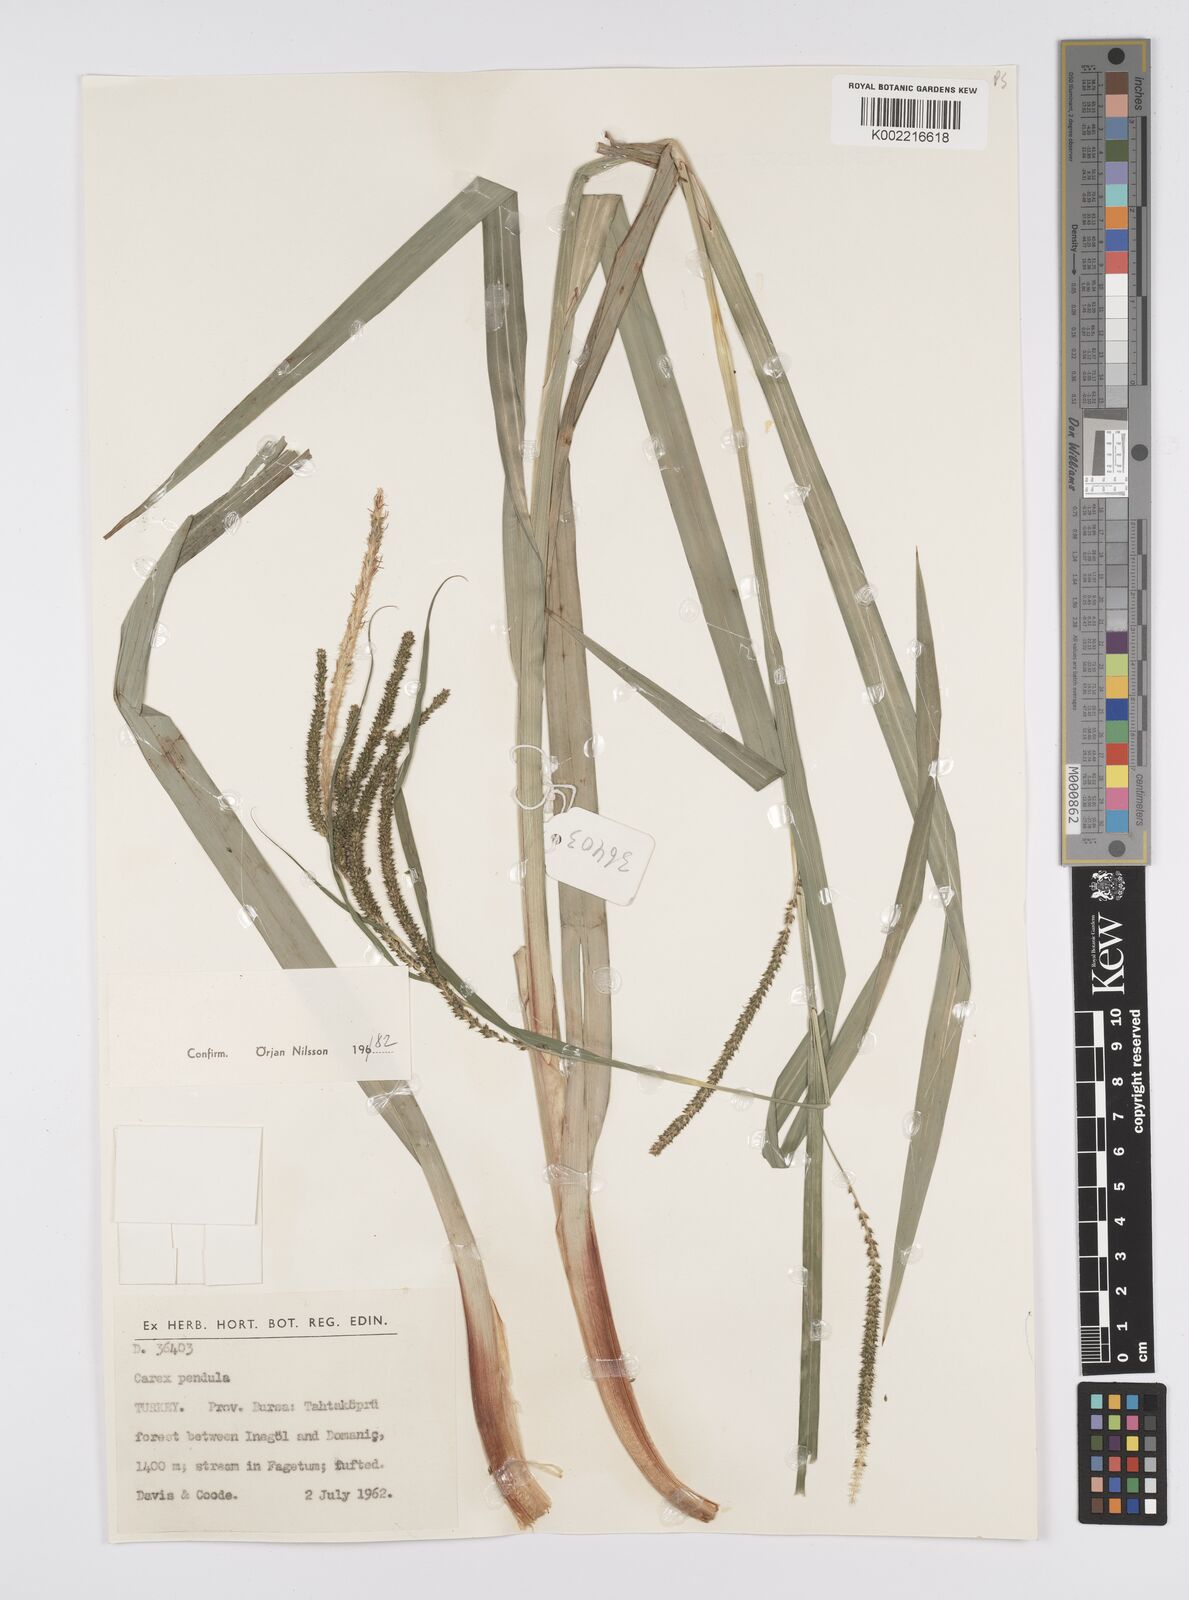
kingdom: Plantae
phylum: Tracheophyta
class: Liliopsida
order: Poales
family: Cyperaceae
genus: Carex
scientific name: Carex pendula
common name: Pendulous sedge
